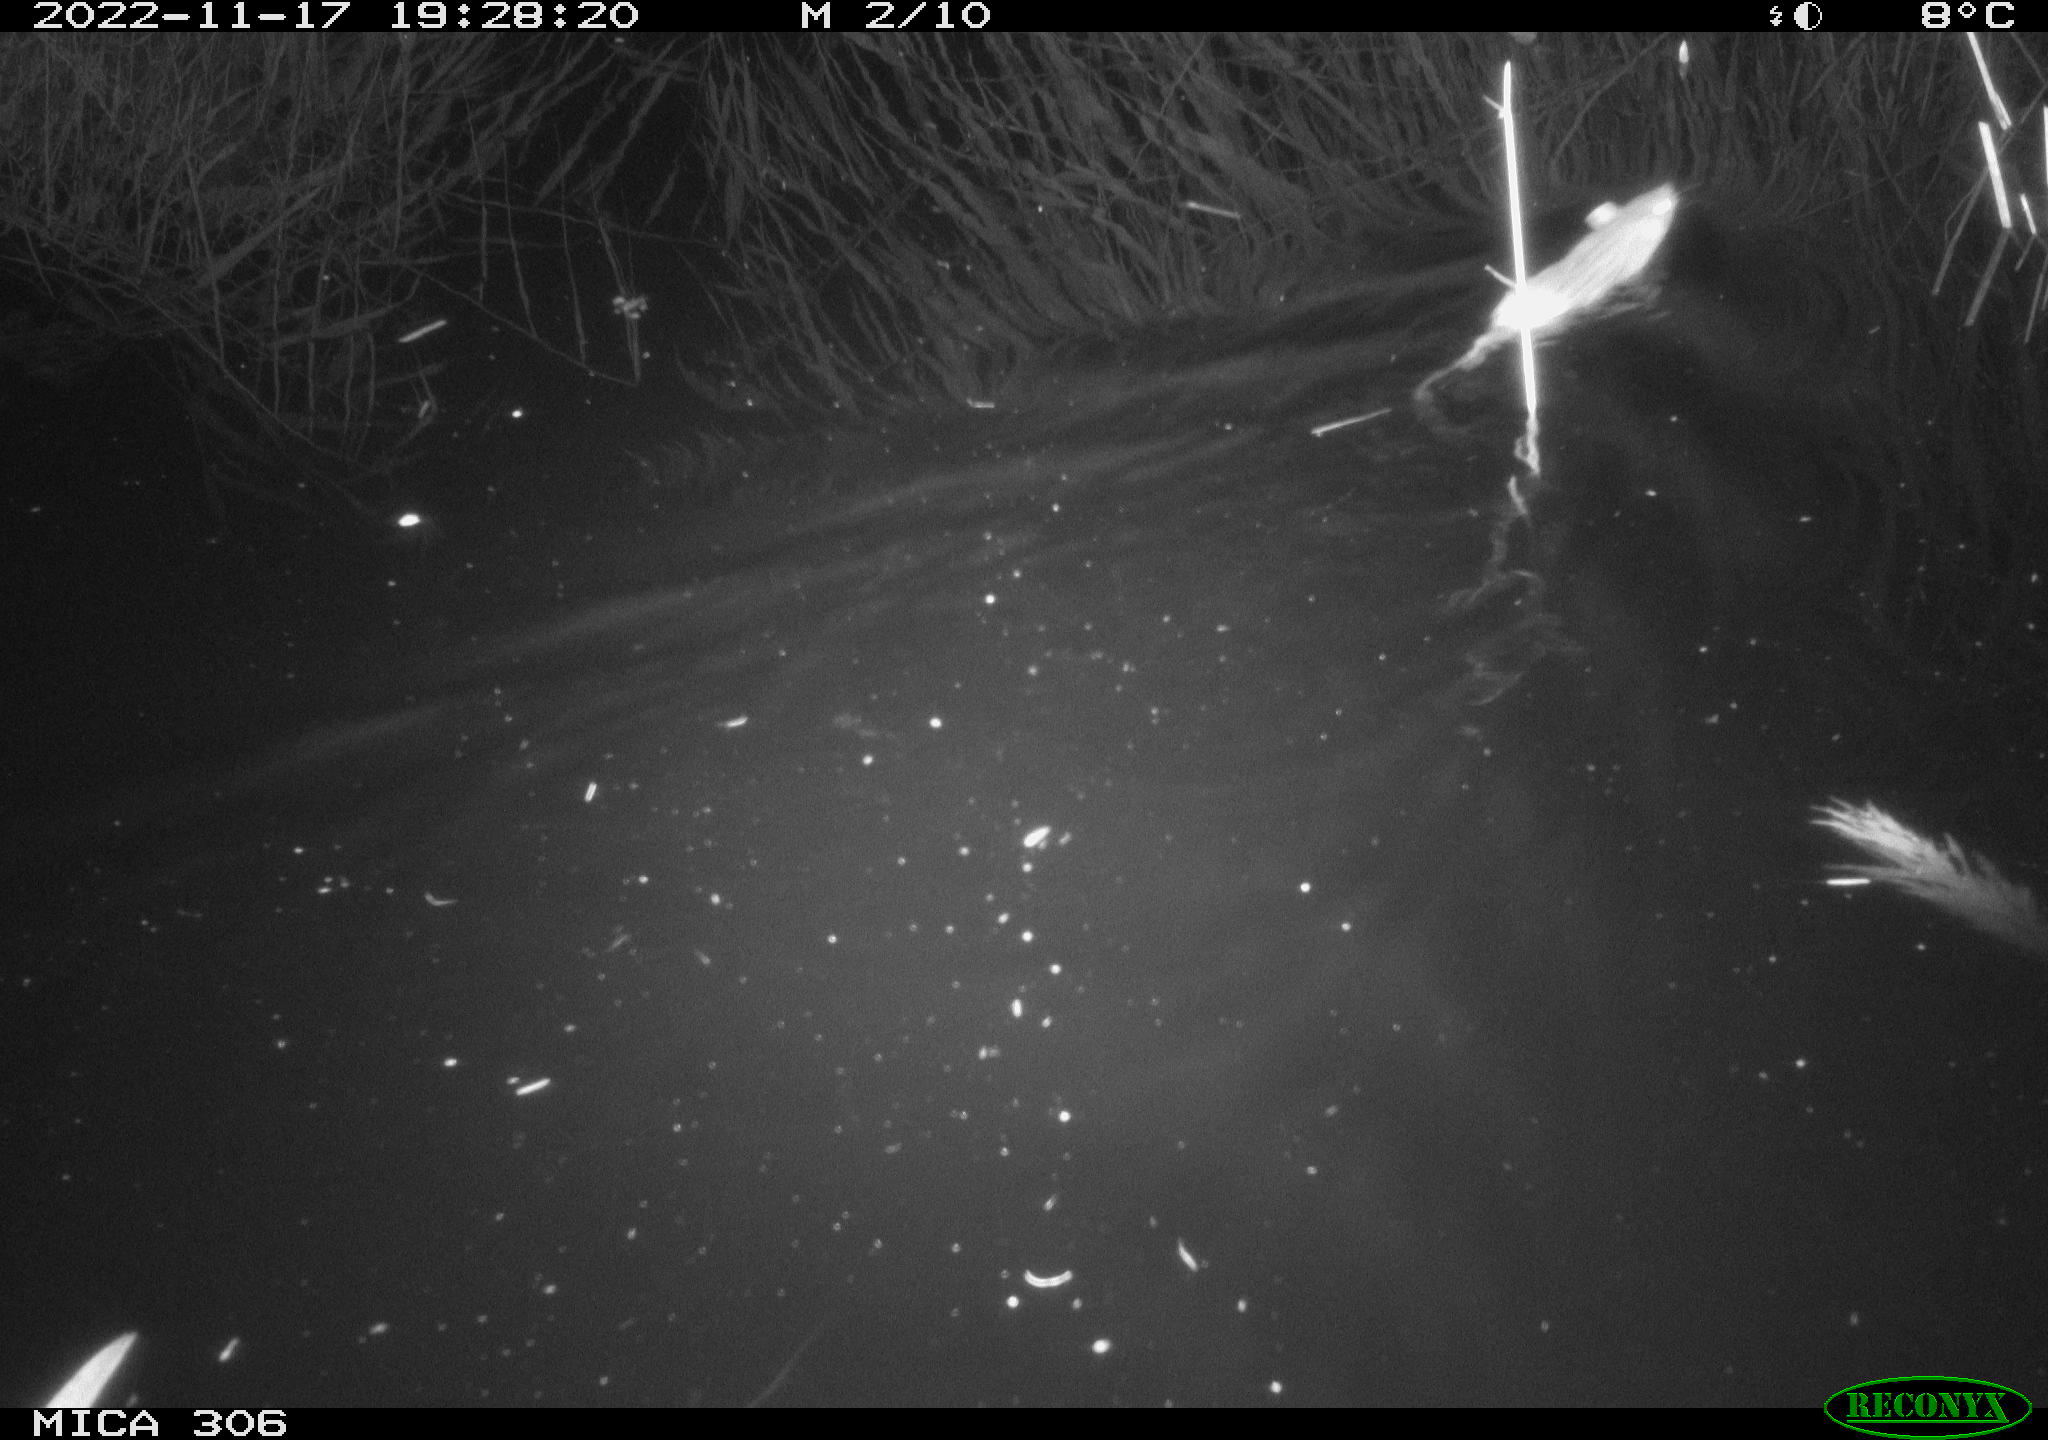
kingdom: Animalia
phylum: Chordata
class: Mammalia
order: Rodentia
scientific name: Rodentia
